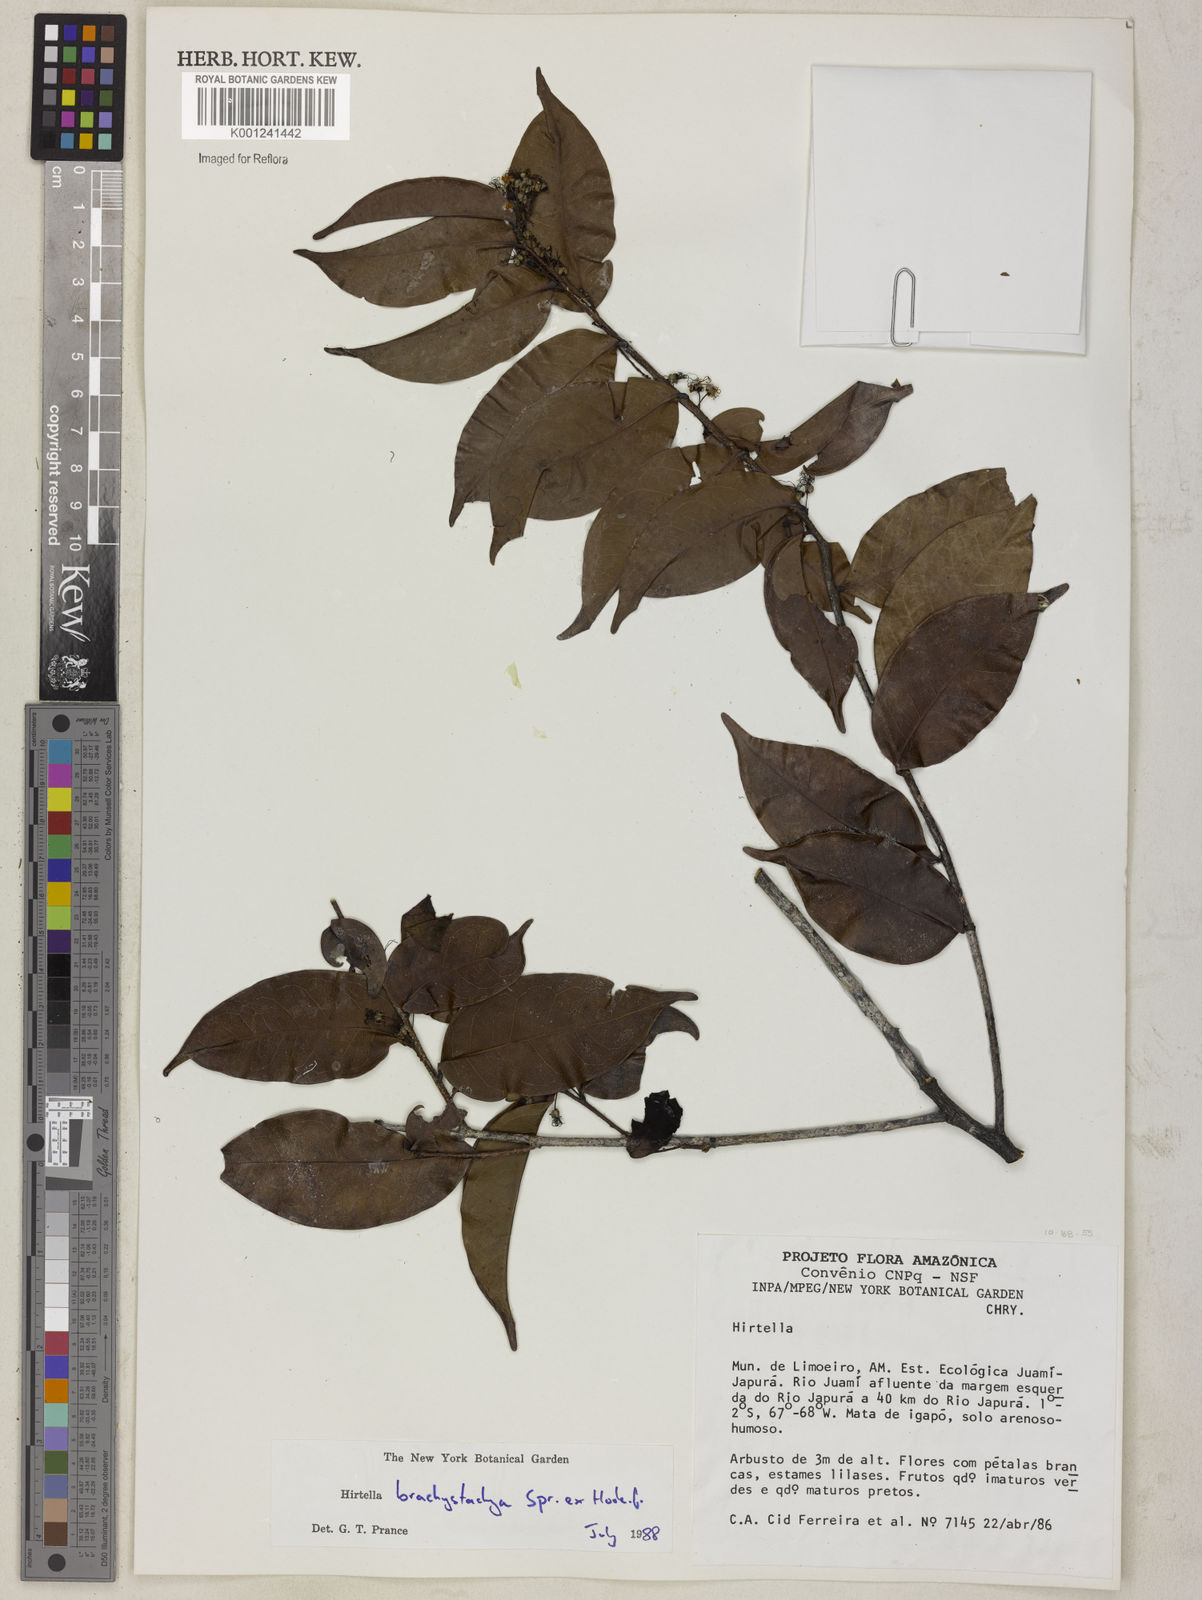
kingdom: Plantae
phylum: Tracheophyta
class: Magnoliopsida
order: Malpighiales
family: Chrysobalanaceae
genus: Hirtella
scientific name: Hirtella brachystachya
